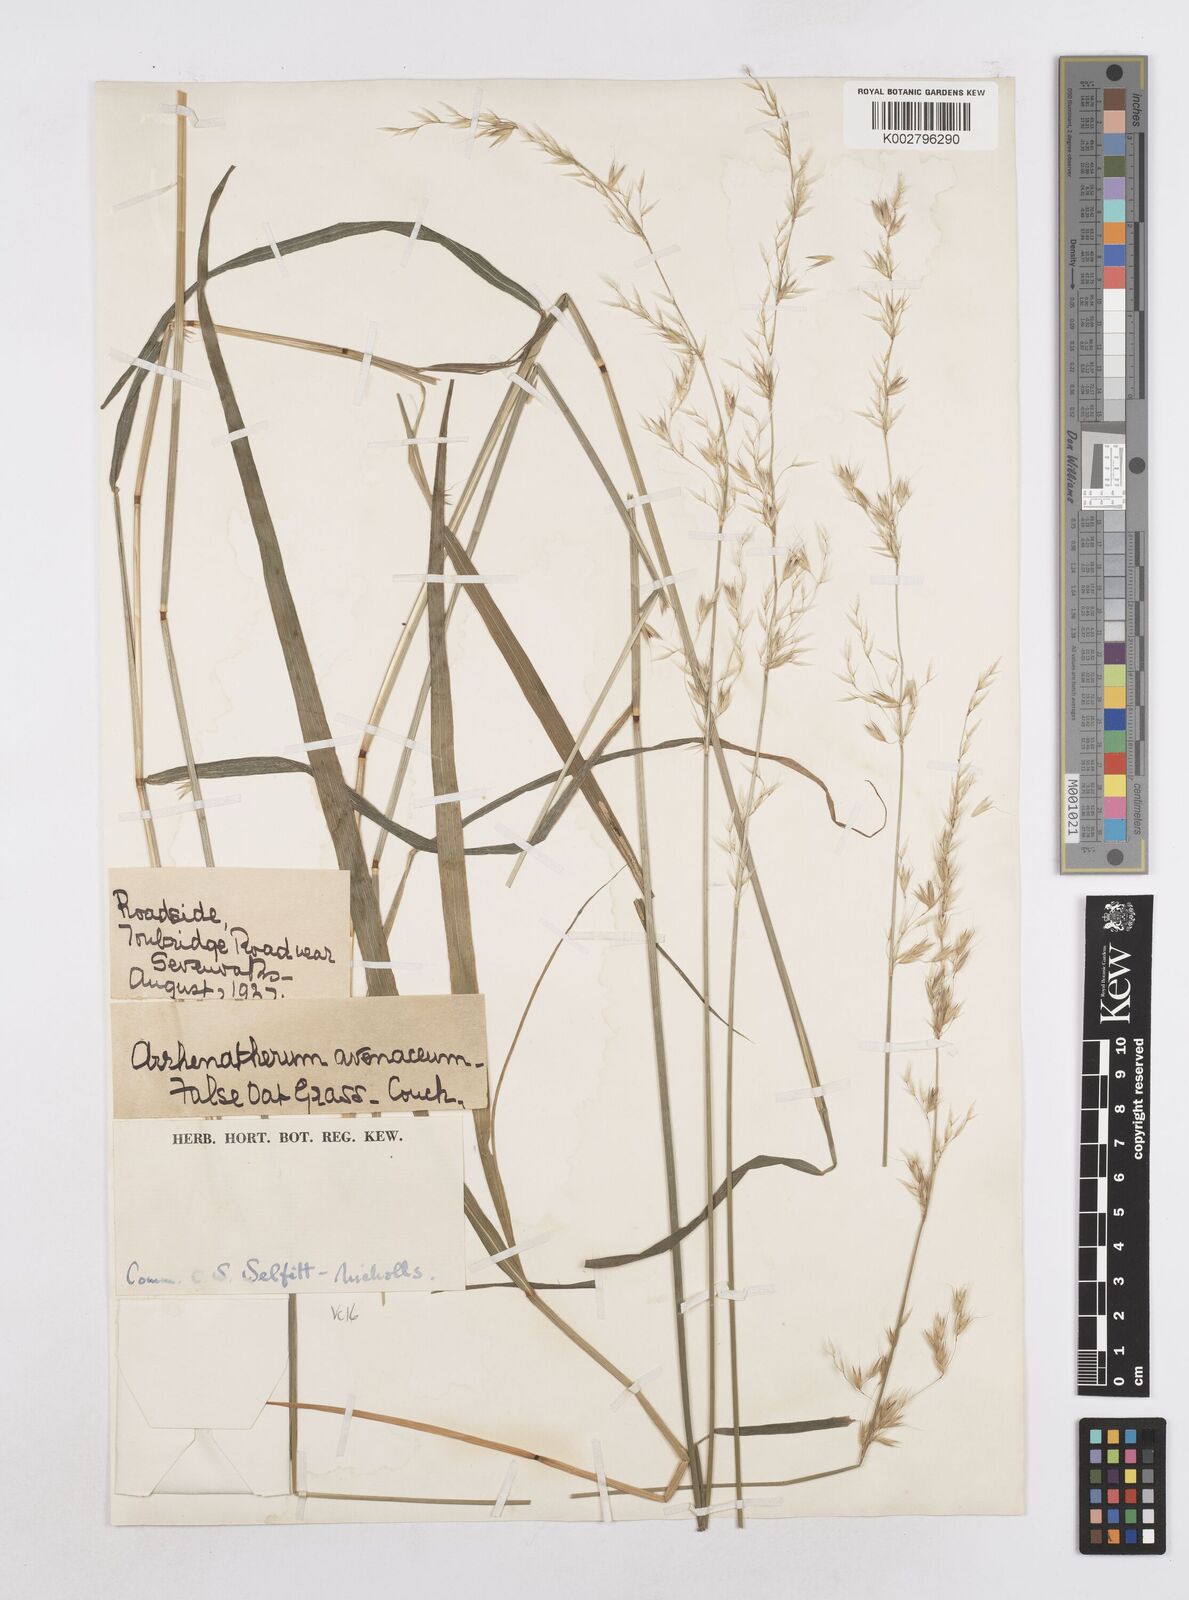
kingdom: Plantae
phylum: Tracheophyta
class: Liliopsida
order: Poales
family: Poaceae
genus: Arrhenatherum
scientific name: Arrhenatherum elatius
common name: Tall oatgrass
